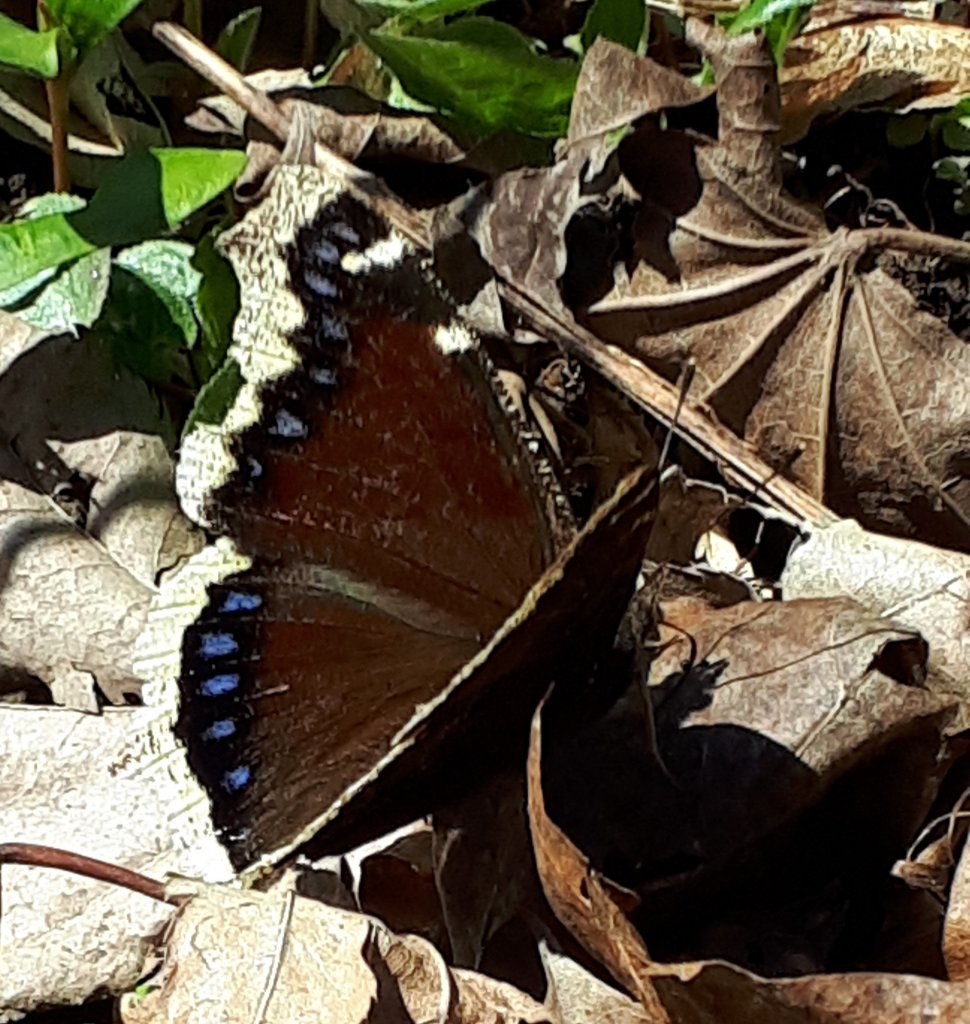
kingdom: Animalia
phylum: Arthropoda
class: Insecta
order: Lepidoptera
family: Nymphalidae
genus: Nymphalis
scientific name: Nymphalis antiopa
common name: Mourning Cloak
